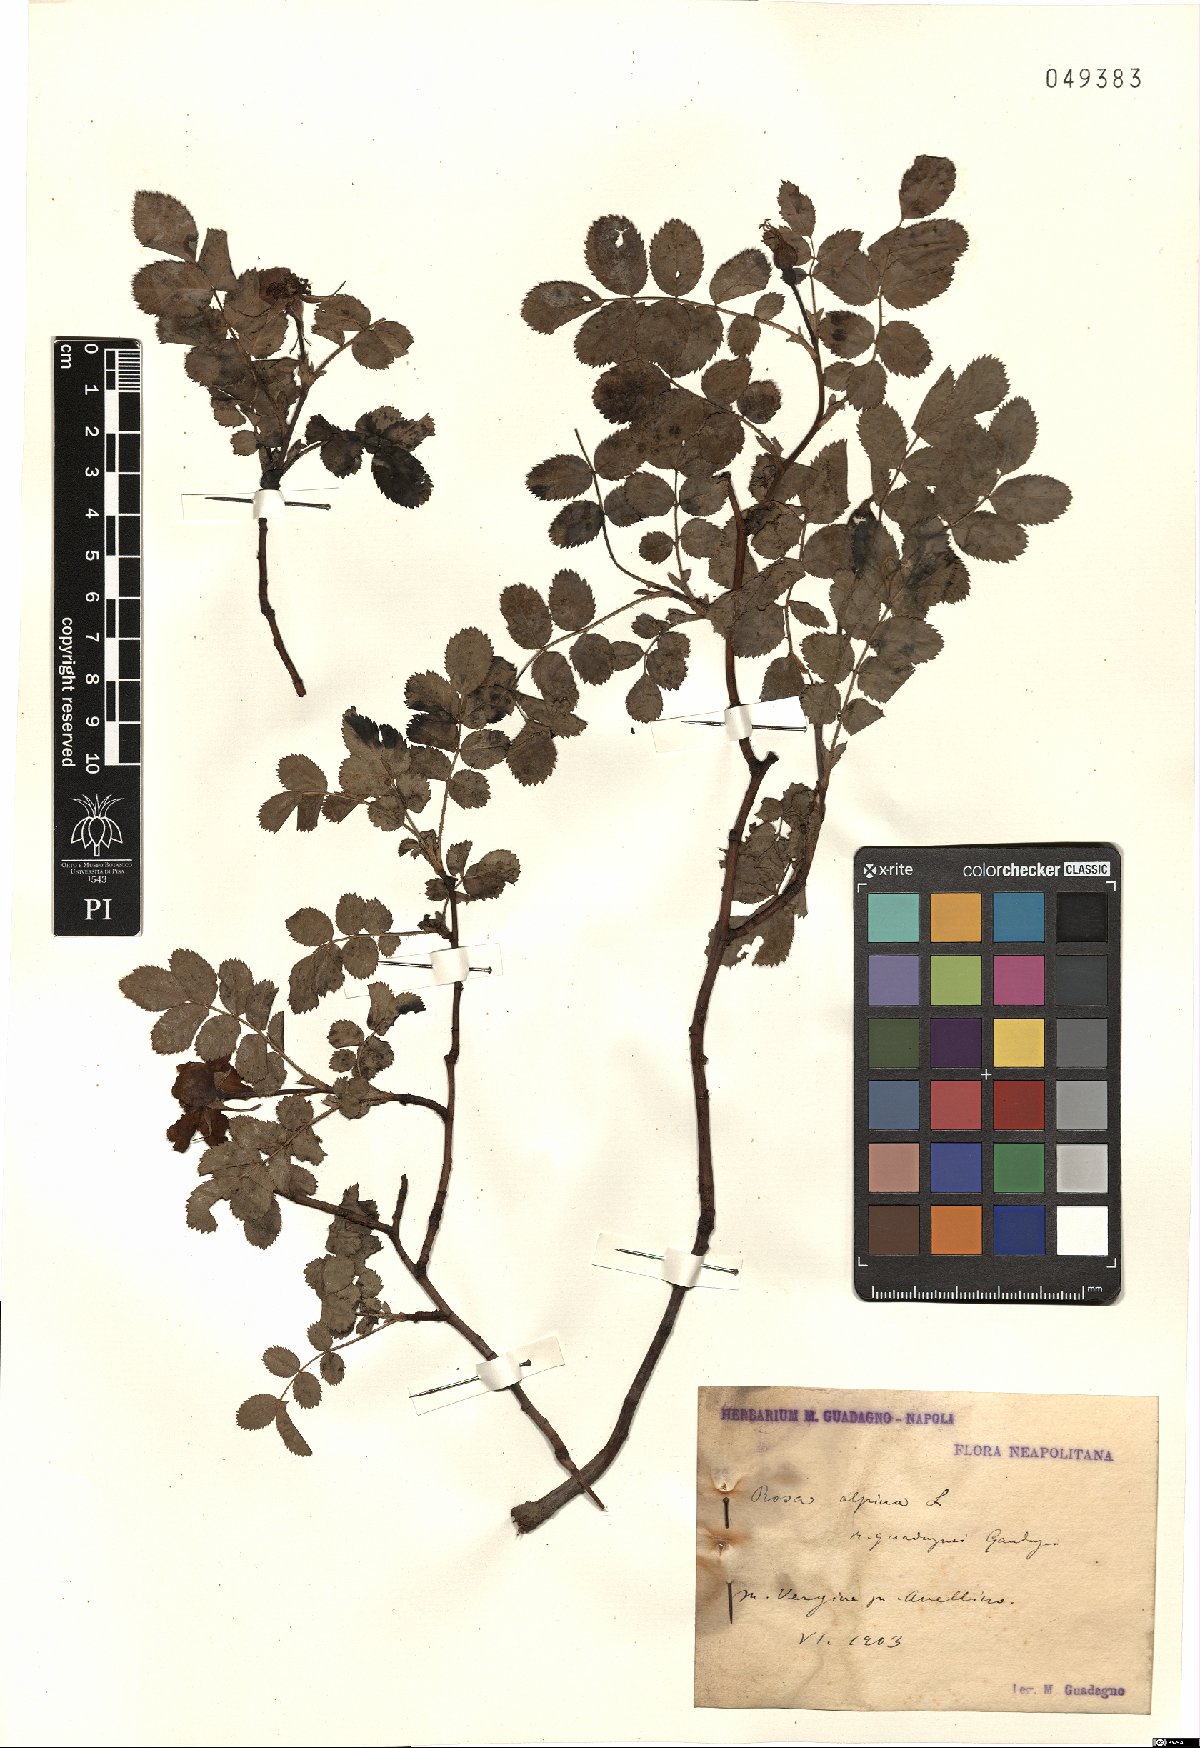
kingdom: Plantae
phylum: Tracheophyta
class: Magnoliopsida
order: Rosales
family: Rosaceae
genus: Rosa
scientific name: Rosa
